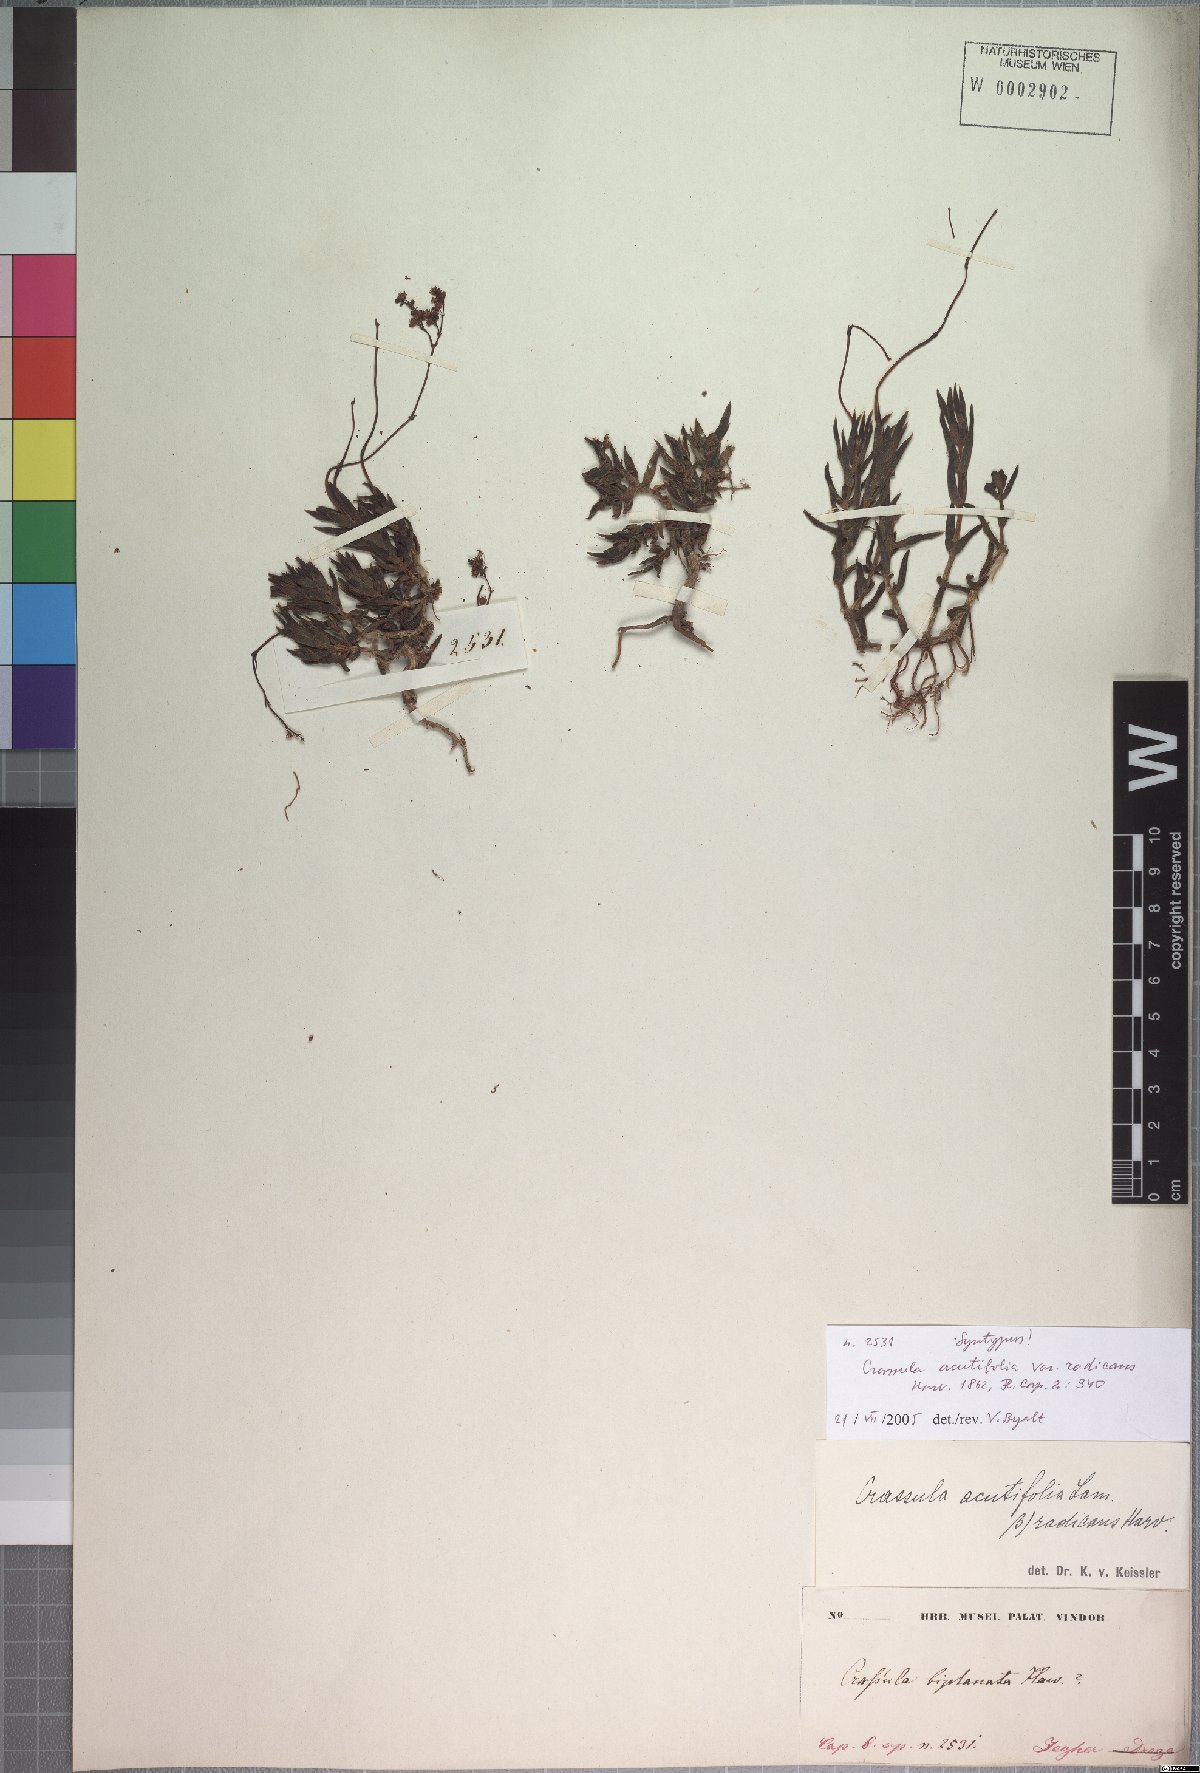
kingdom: Plantae
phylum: Tracheophyta
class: Magnoliopsida
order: Saxifragales
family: Crassulaceae
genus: Crassula
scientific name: Crassula tetragona
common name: Pygmyweed
